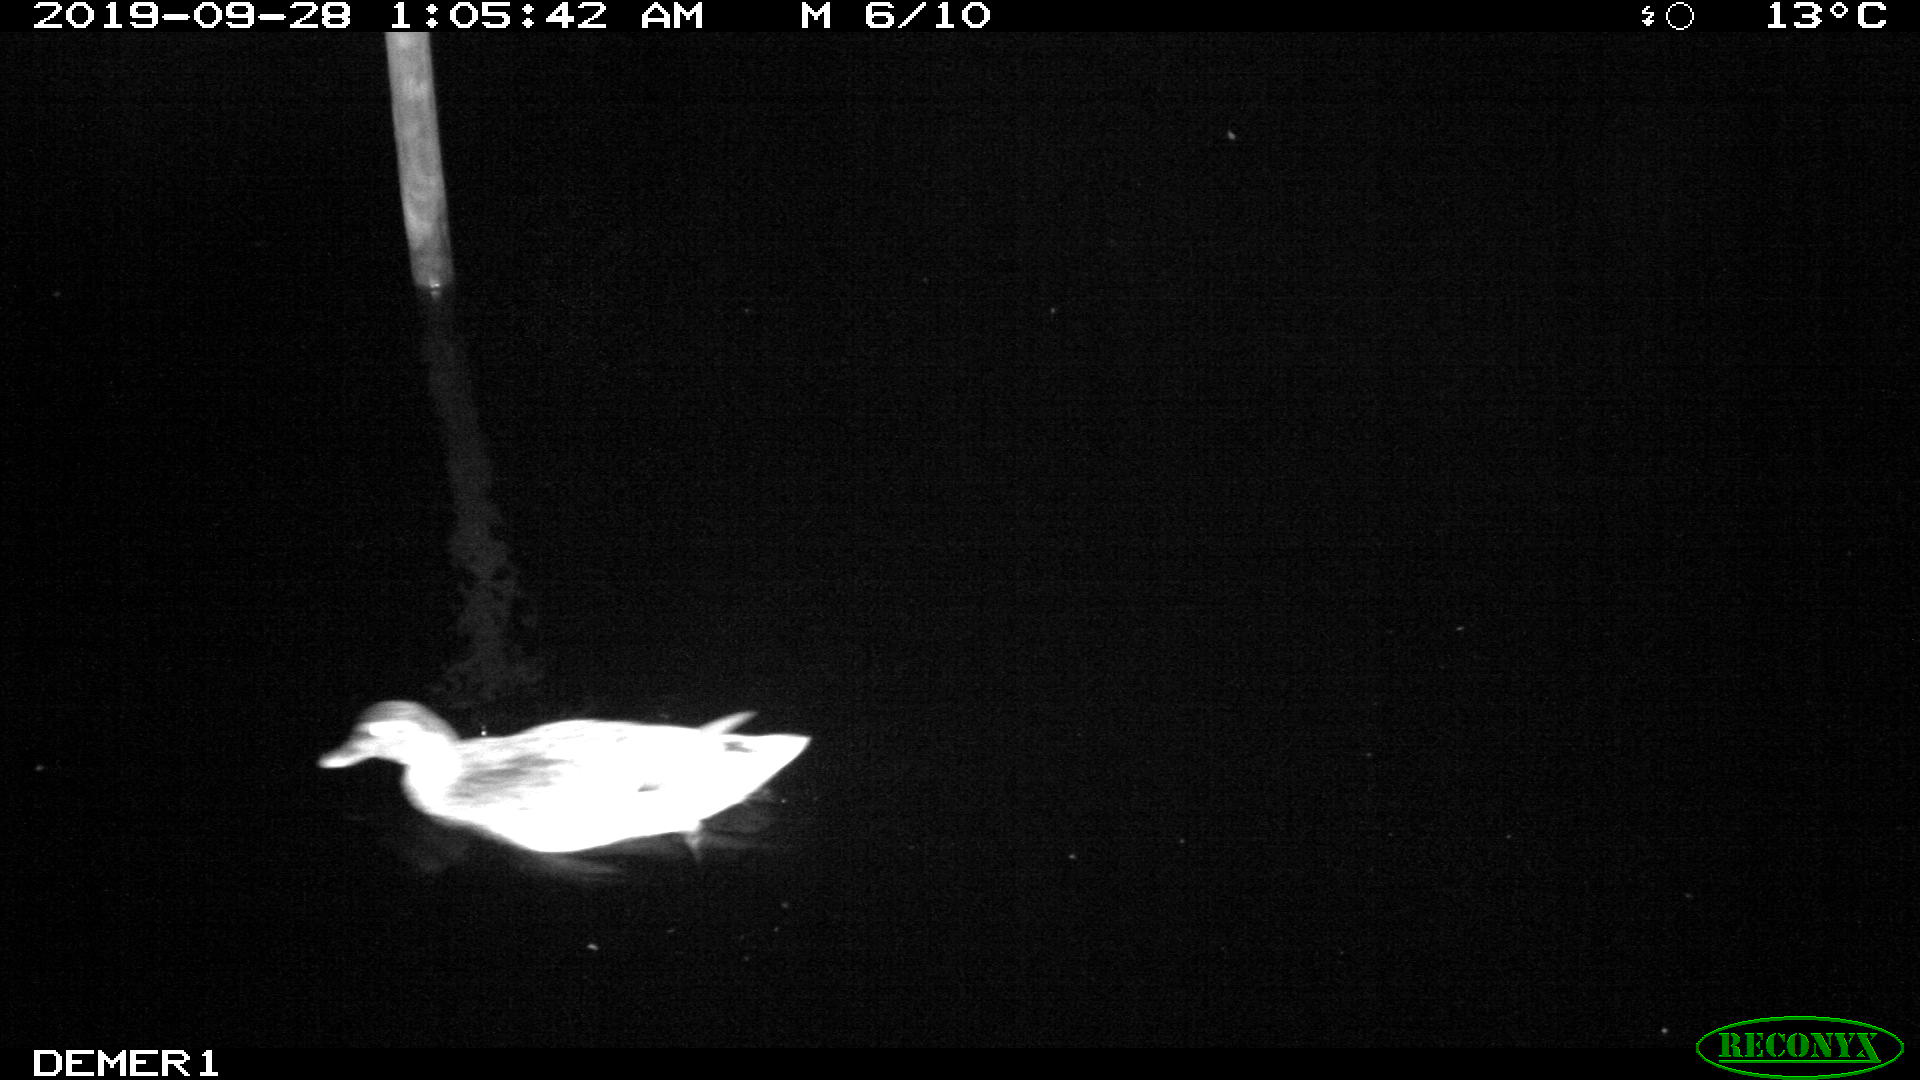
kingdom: Animalia
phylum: Chordata
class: Aves
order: Anseriformes
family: Anatidae
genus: Anas
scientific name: Anas platyrhynchos
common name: Mallard
